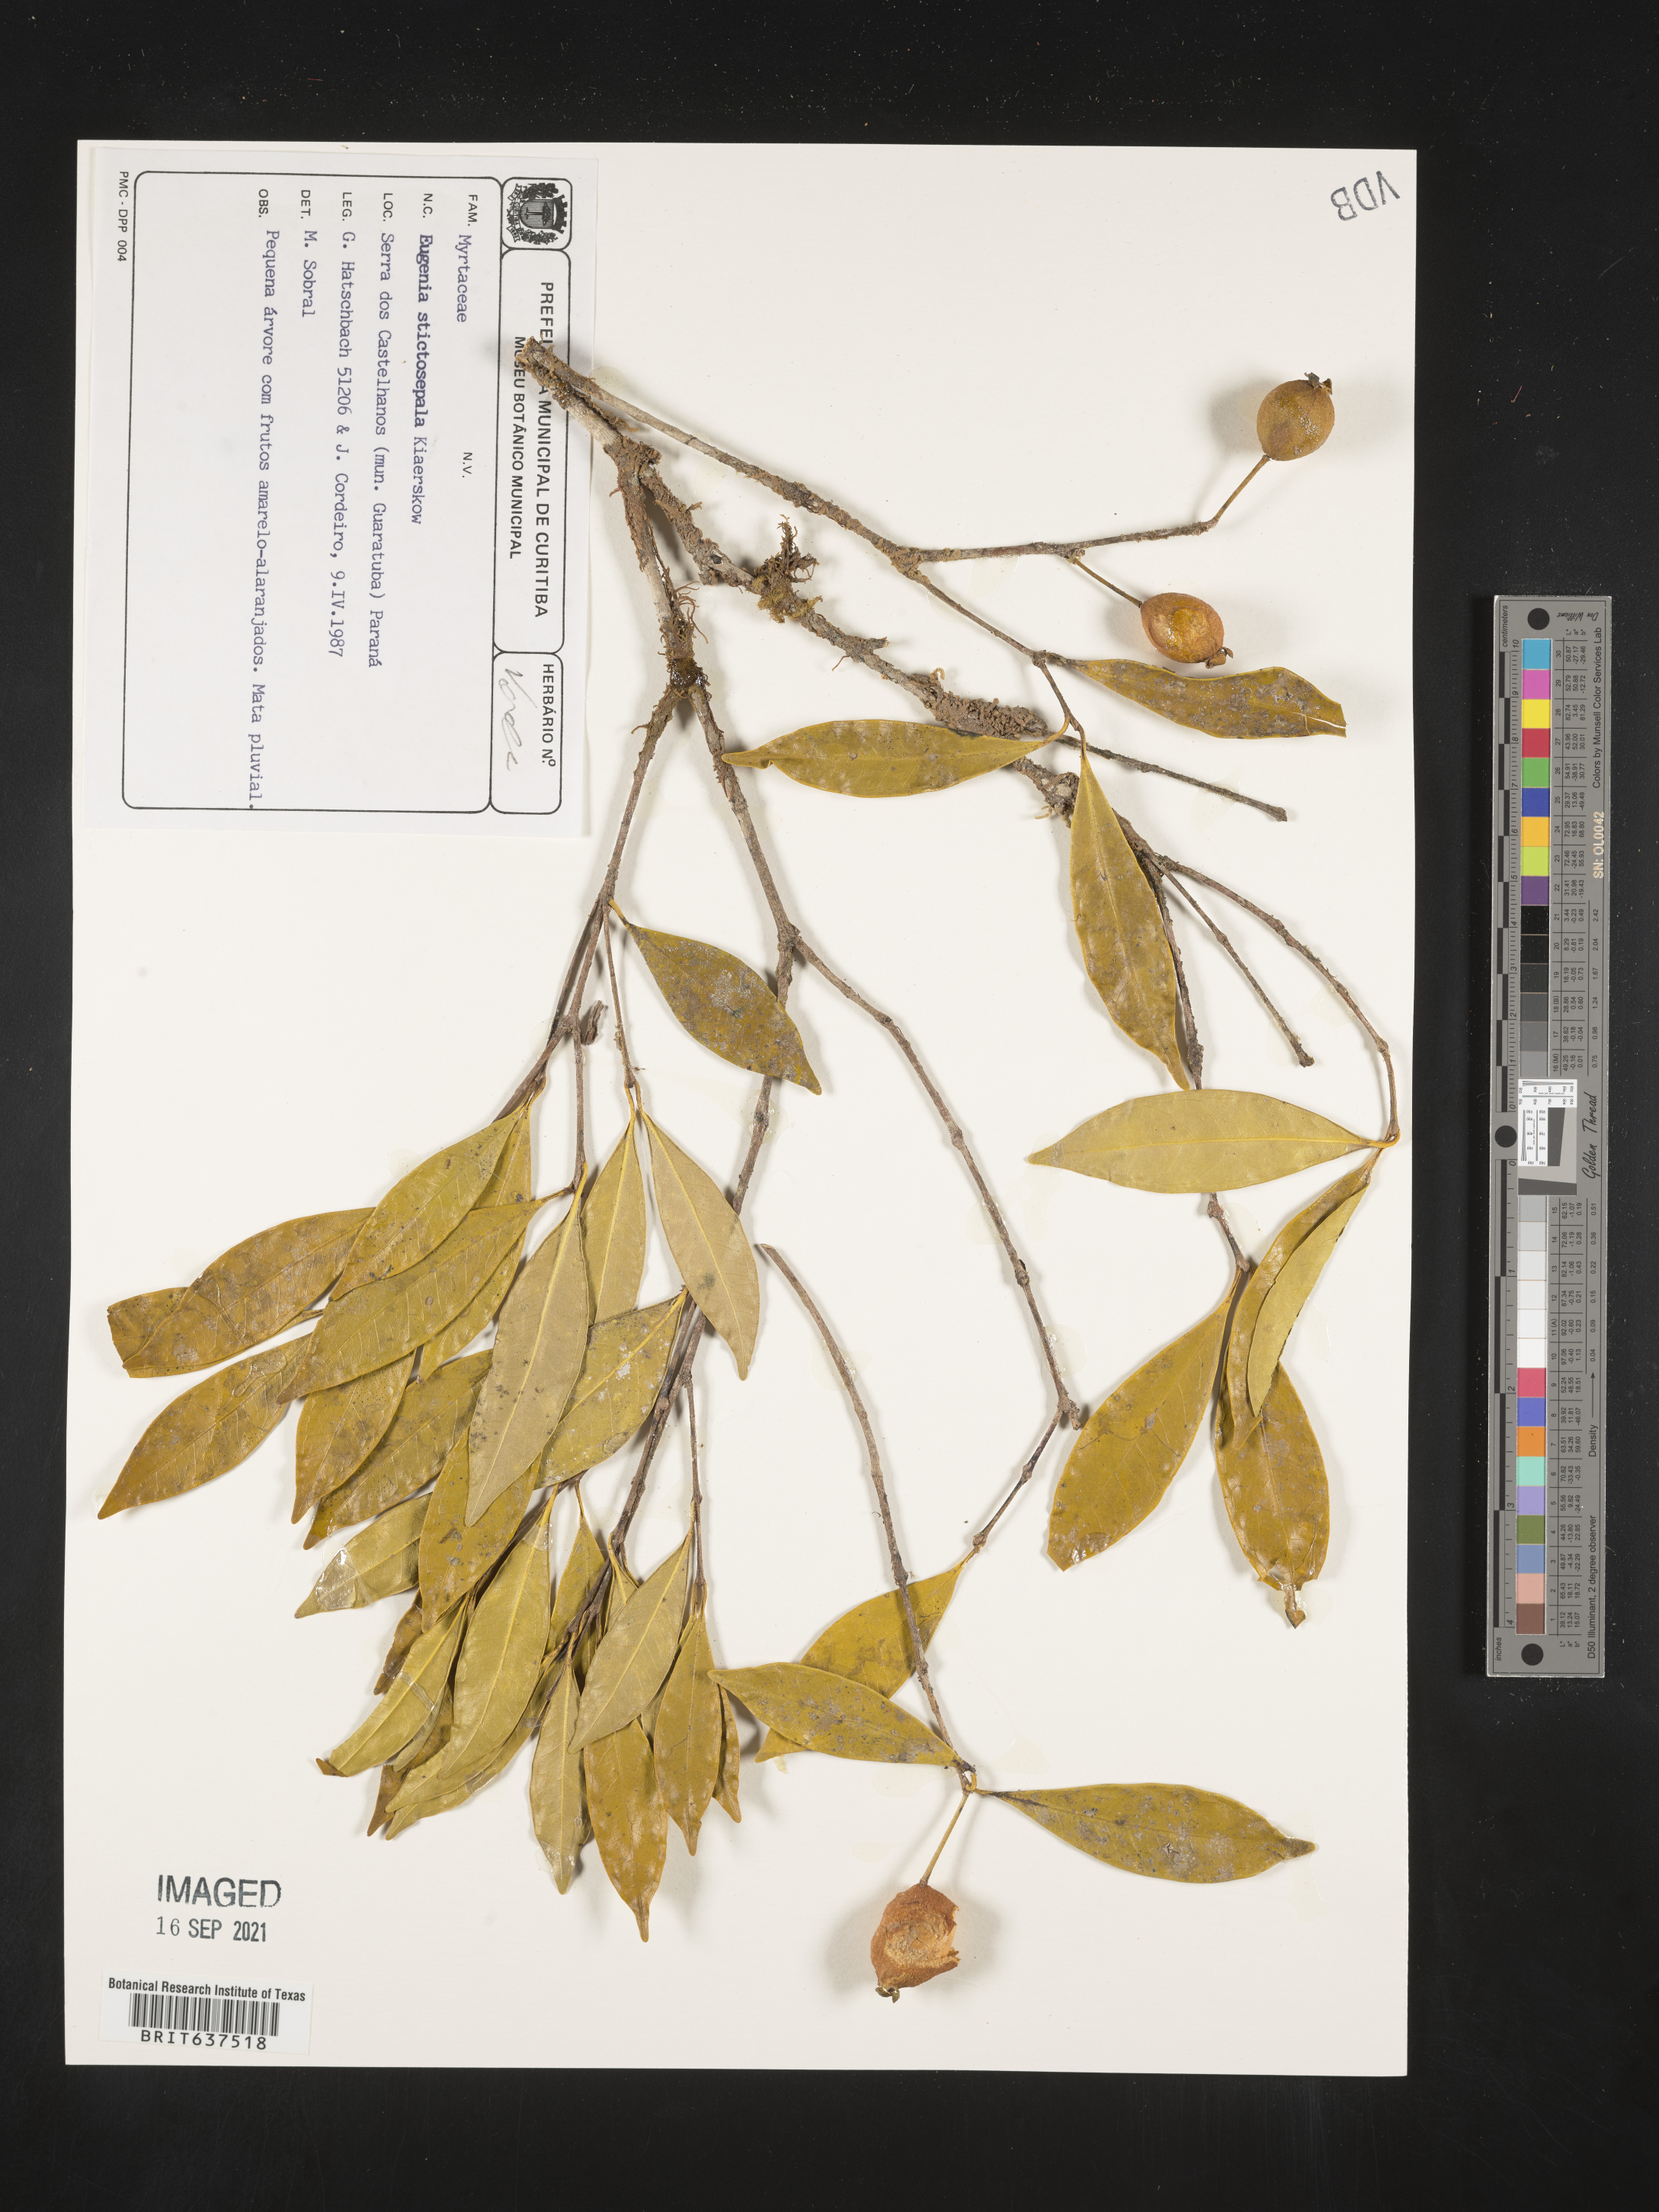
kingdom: Plantae
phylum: Tracheophyta
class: Magnoliopsida
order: Myrtales
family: Myrtaceae
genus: Eugenia
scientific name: Eugenia
